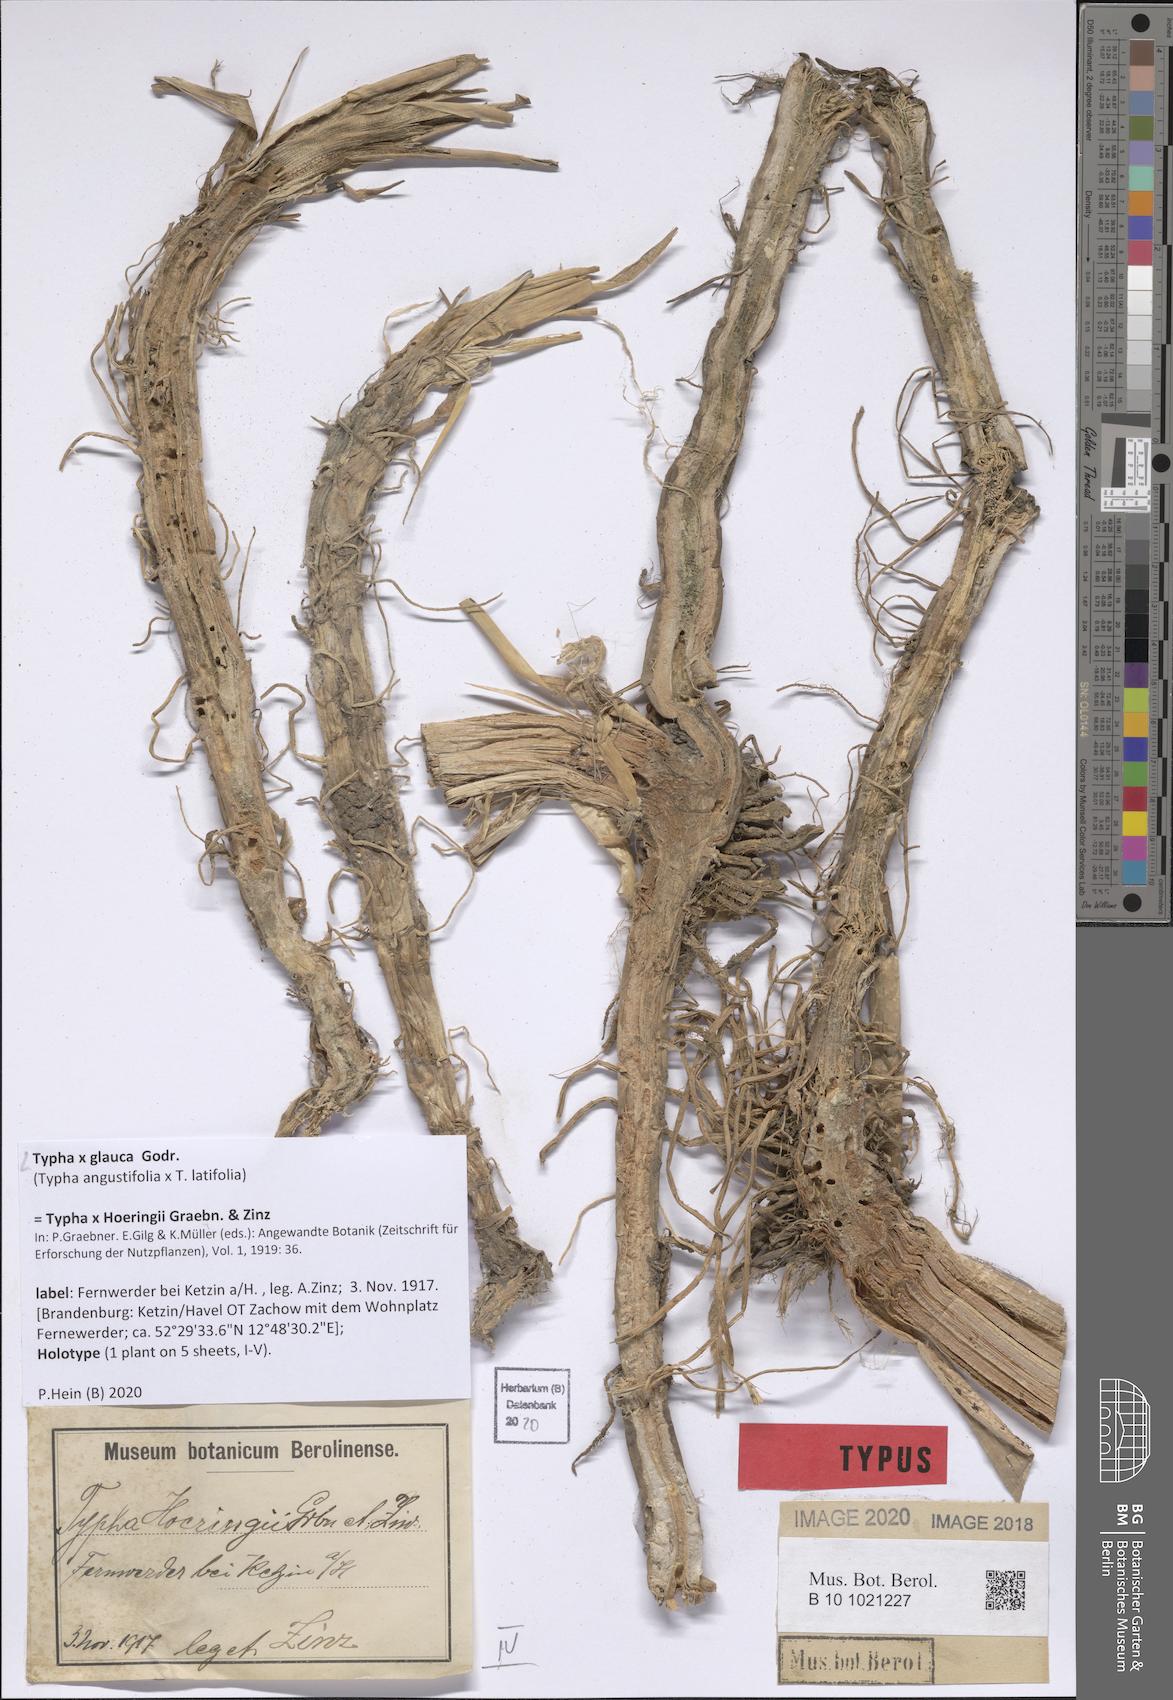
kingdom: Plantae
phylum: Tracheophyta
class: Liliopsida
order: Poales
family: Typhaceae
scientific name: Typhaceae
